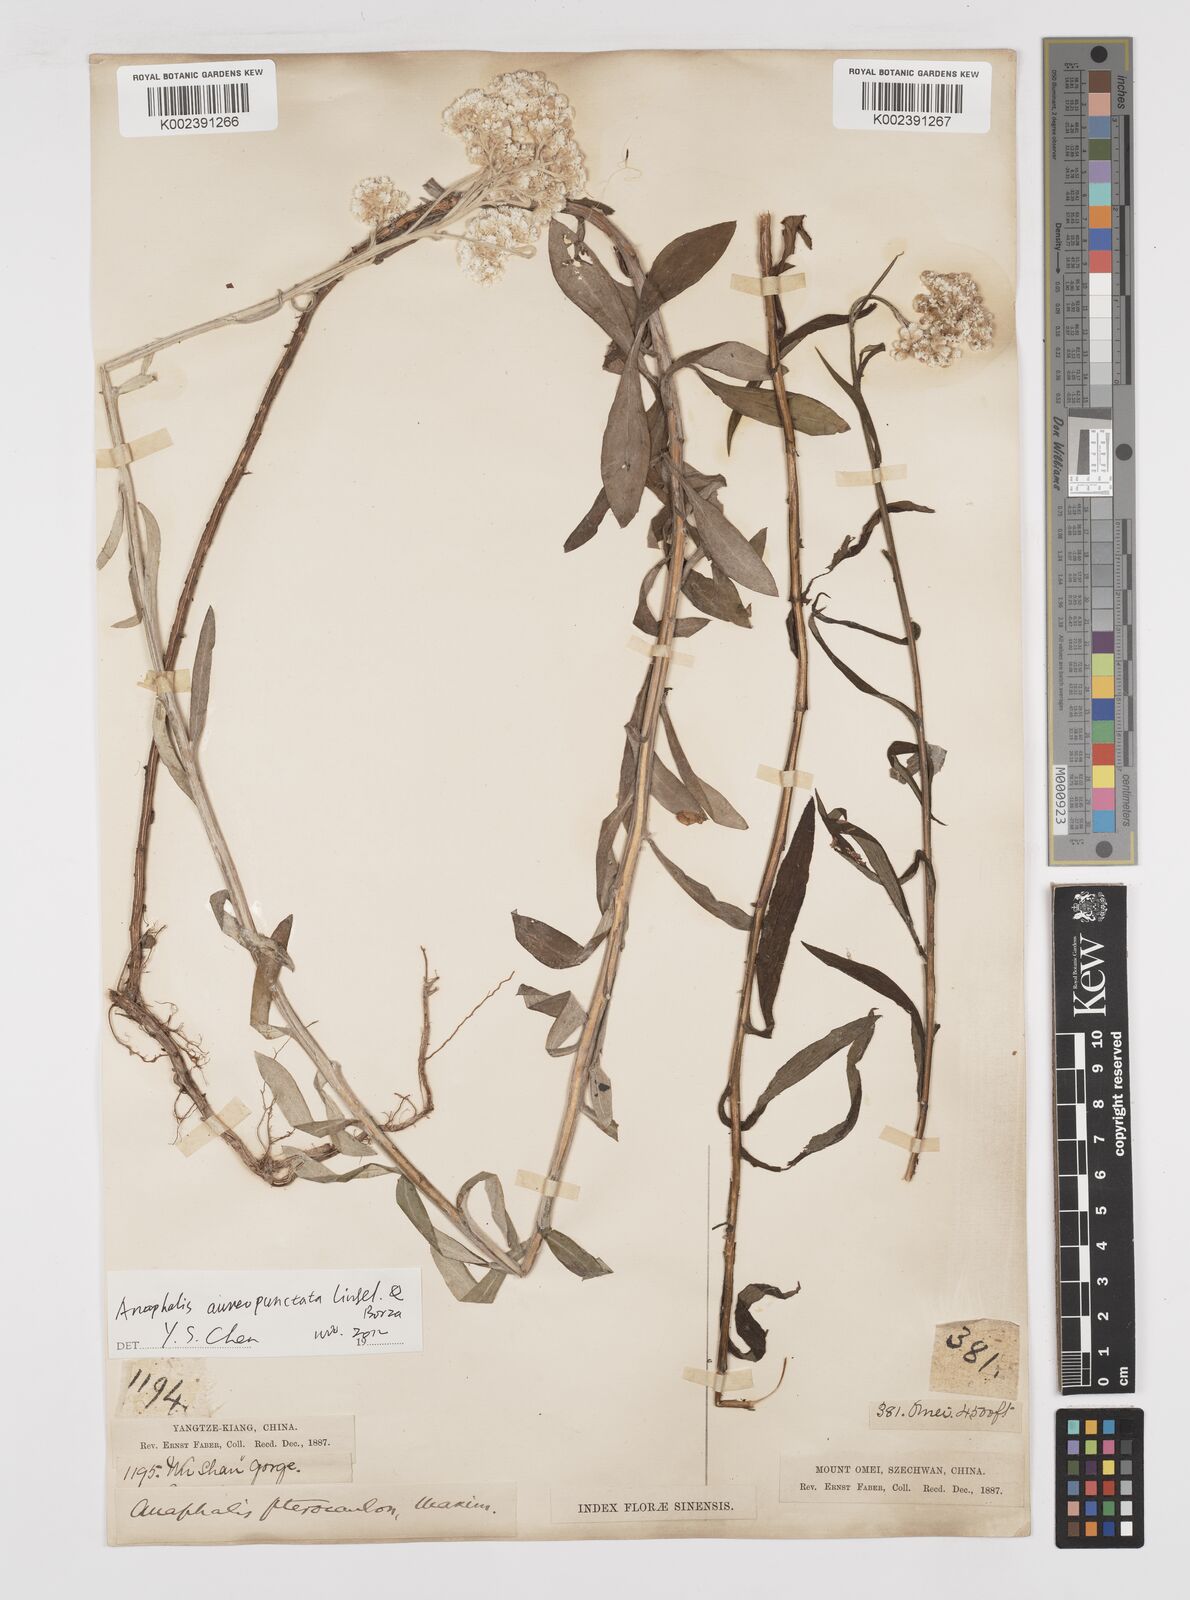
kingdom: Plantae
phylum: Tracheophyta
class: Magnoliopsida
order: Asterales
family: Asteraceae
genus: Anaphalis
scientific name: Anaphalis sinica
